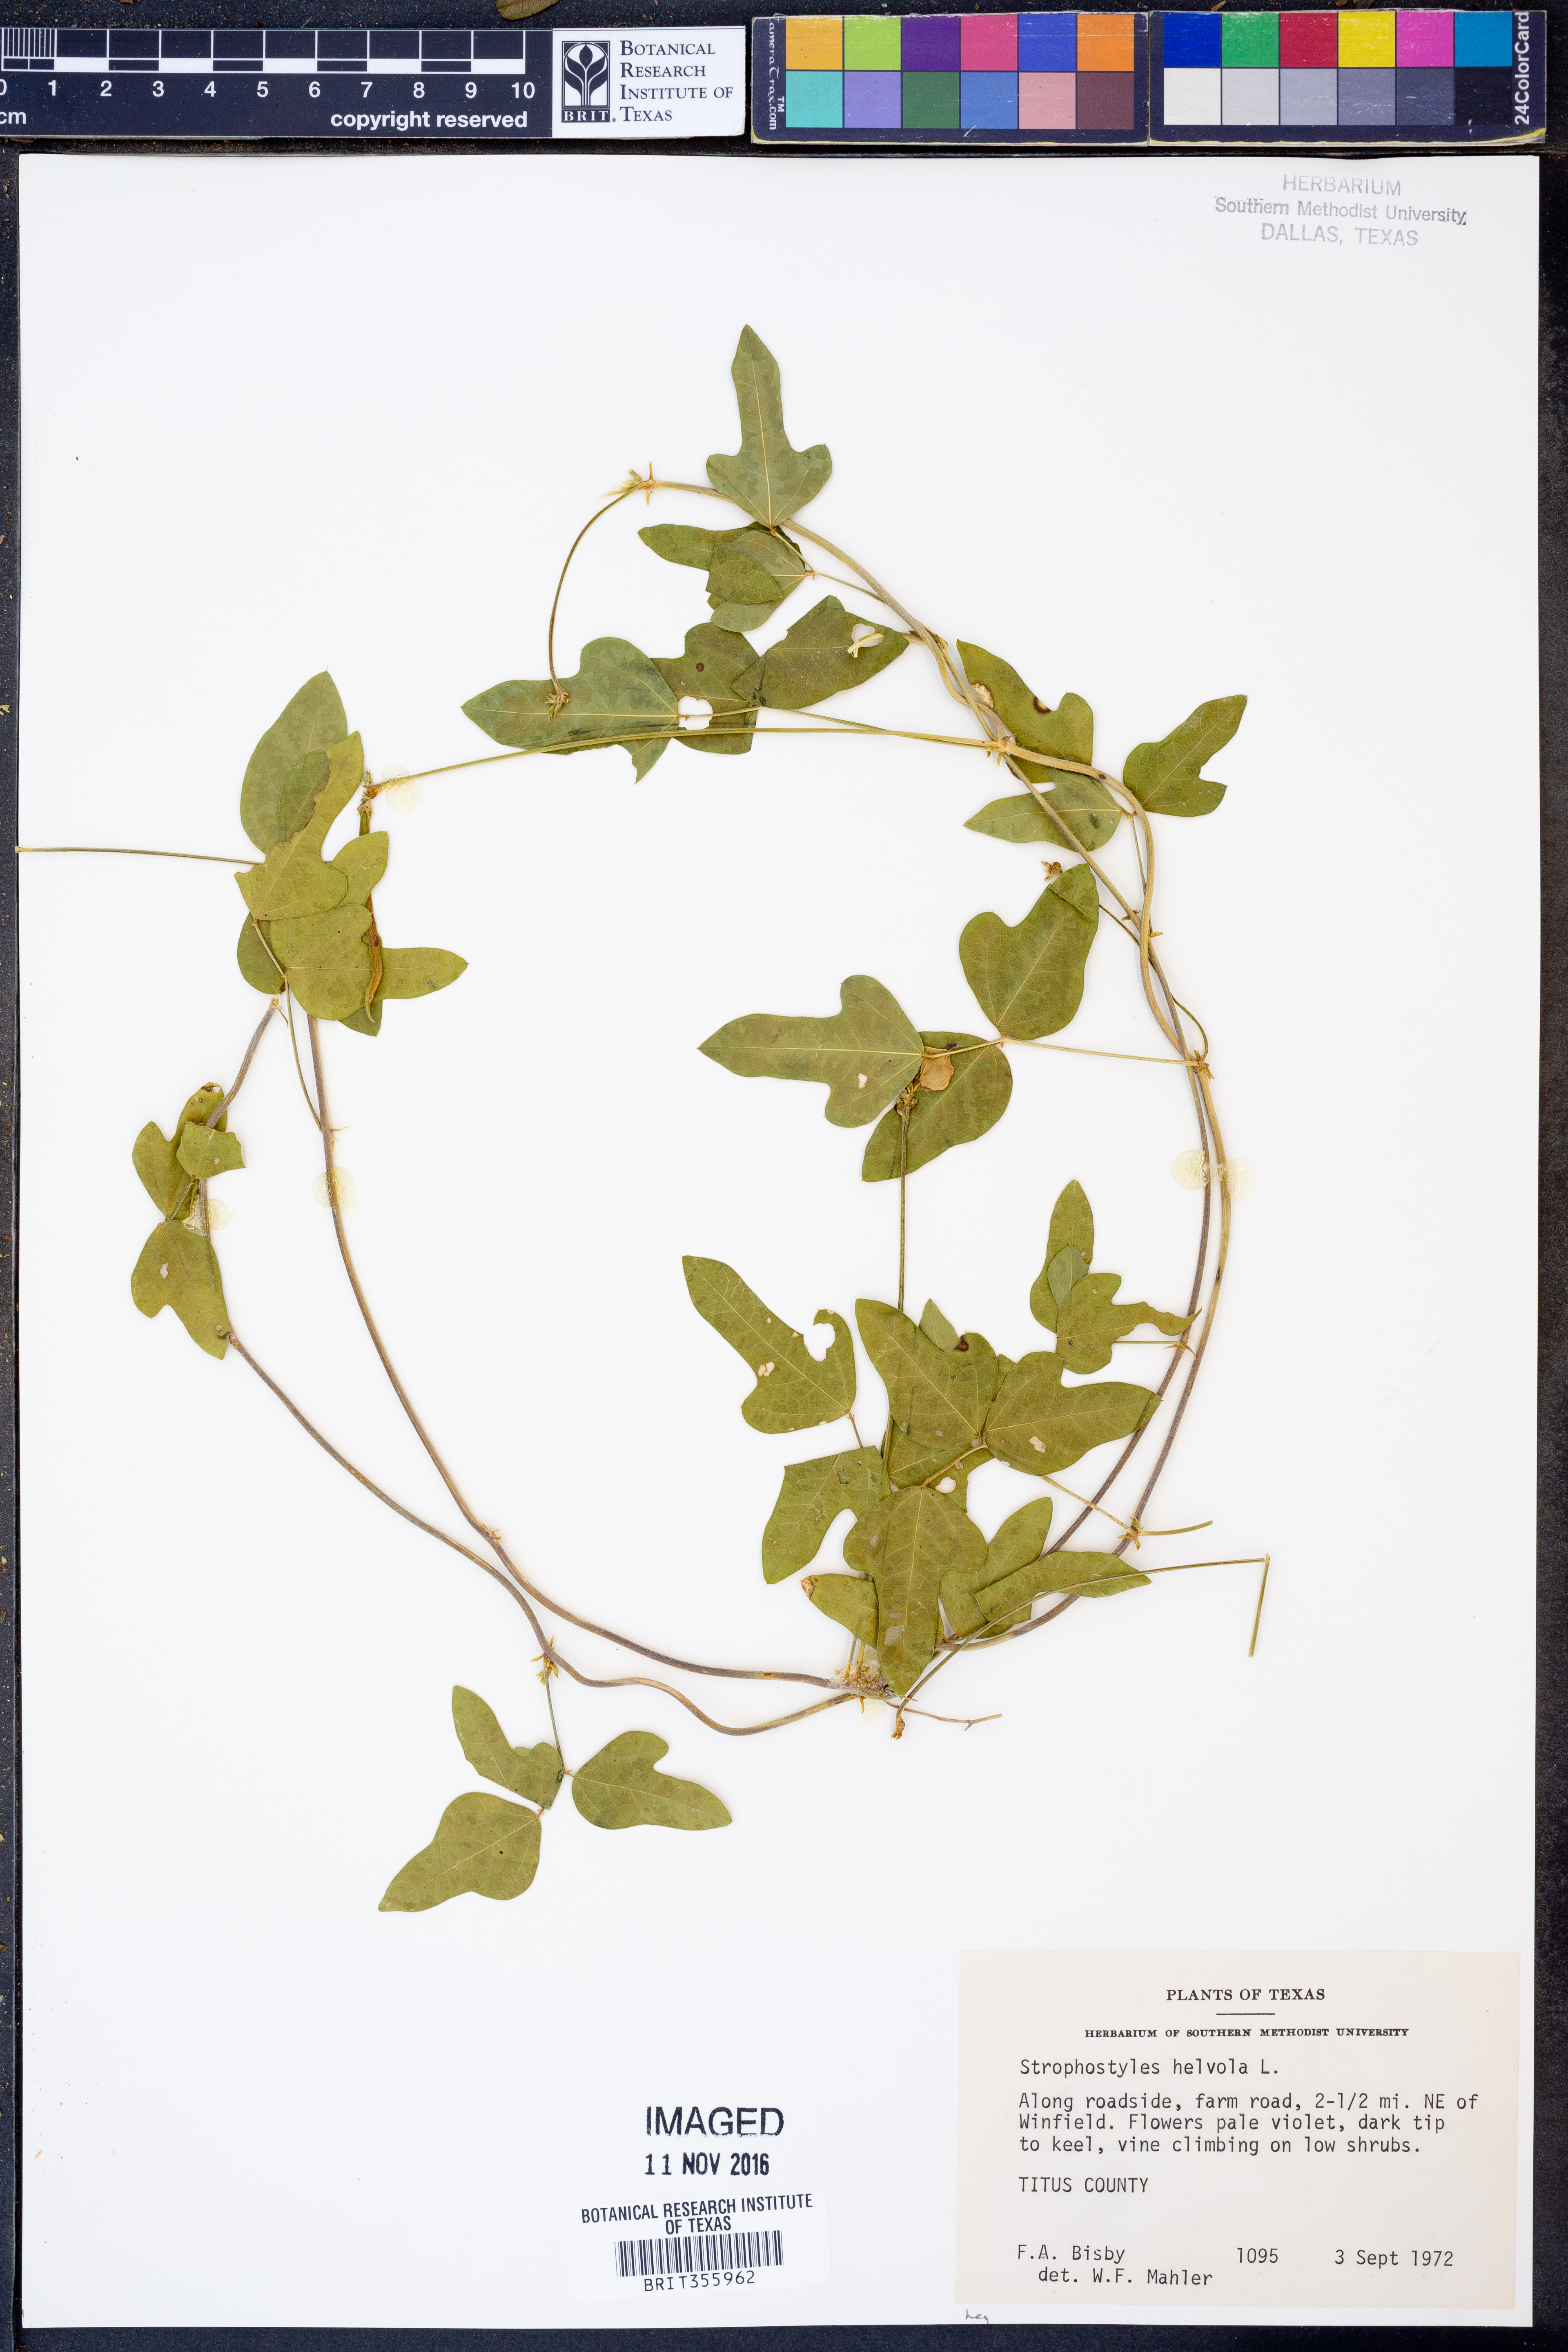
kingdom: Plantae
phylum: Tracheophyta
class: Magnoliopsida
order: Fabales
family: Fabaceae
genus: Strophostyles
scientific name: Strophostyles helvola
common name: Trailing wild bean
